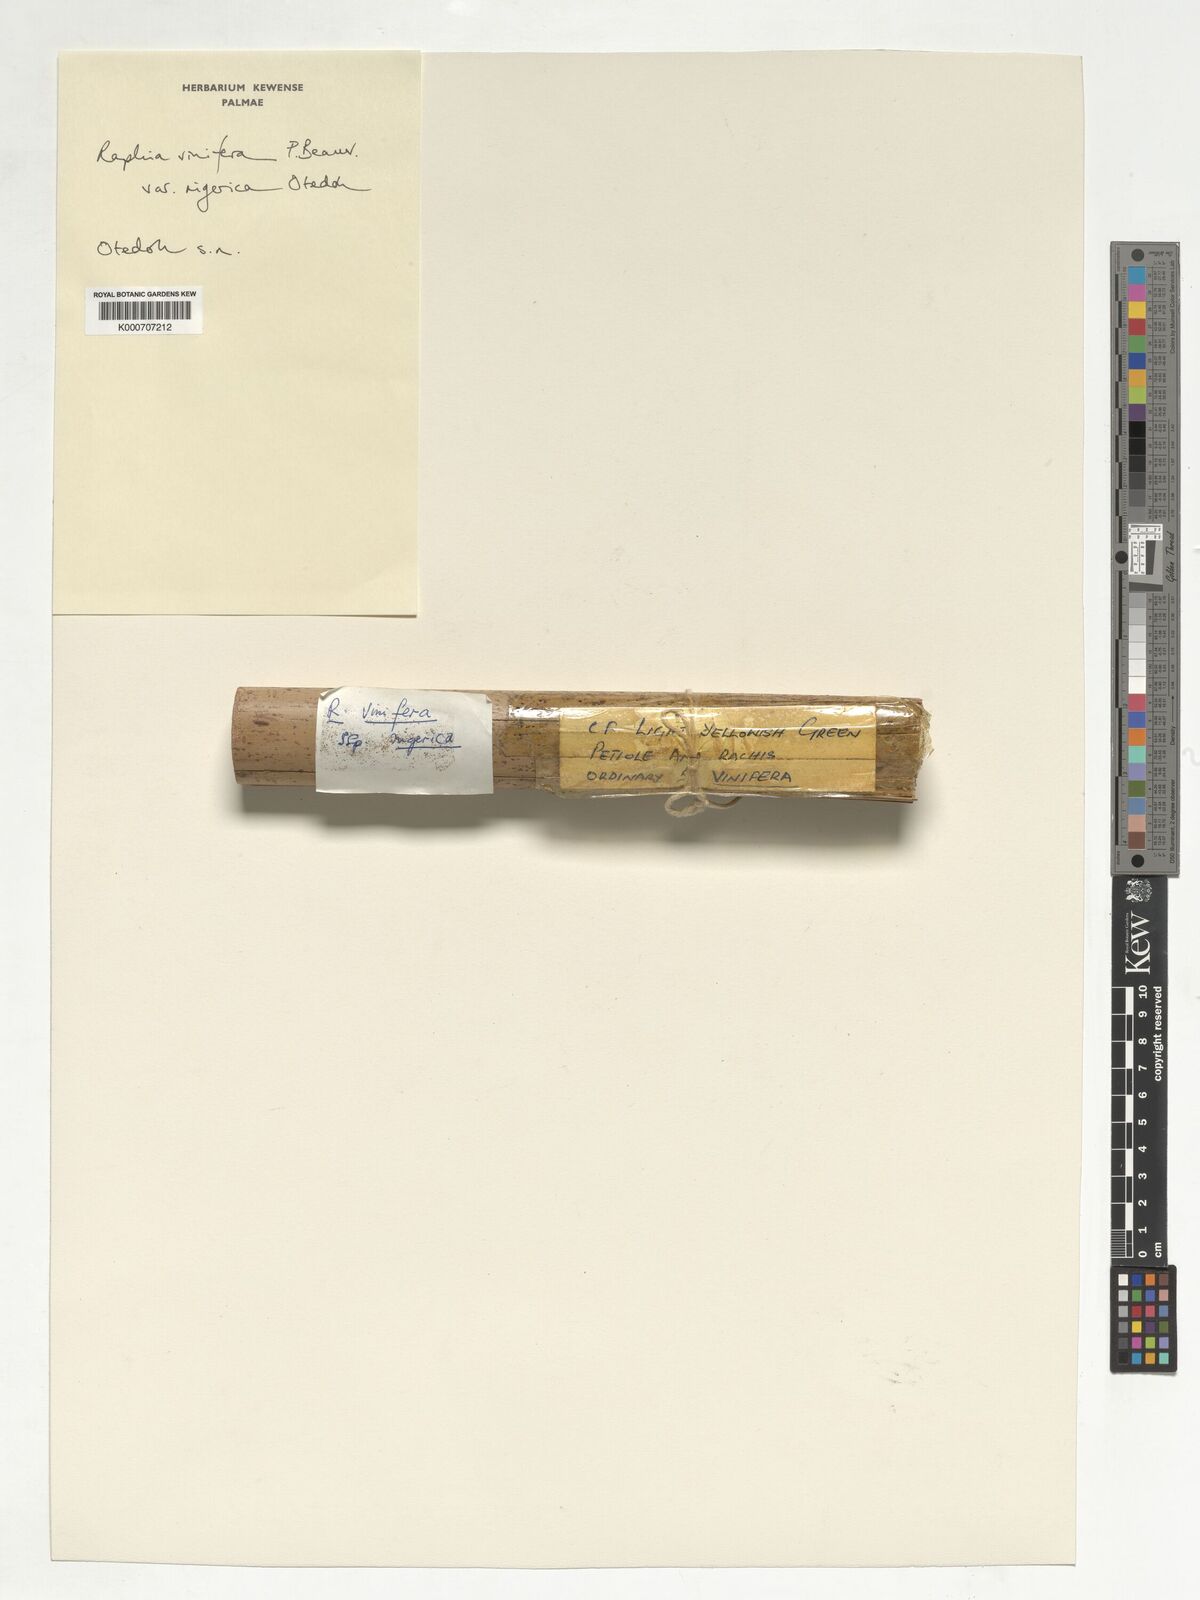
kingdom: Plantae
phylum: Tracheophyta
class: Liliopsida
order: Arecales
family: Arecaceae
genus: Raphia
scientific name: Raphia vinifera
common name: Raphia palm
